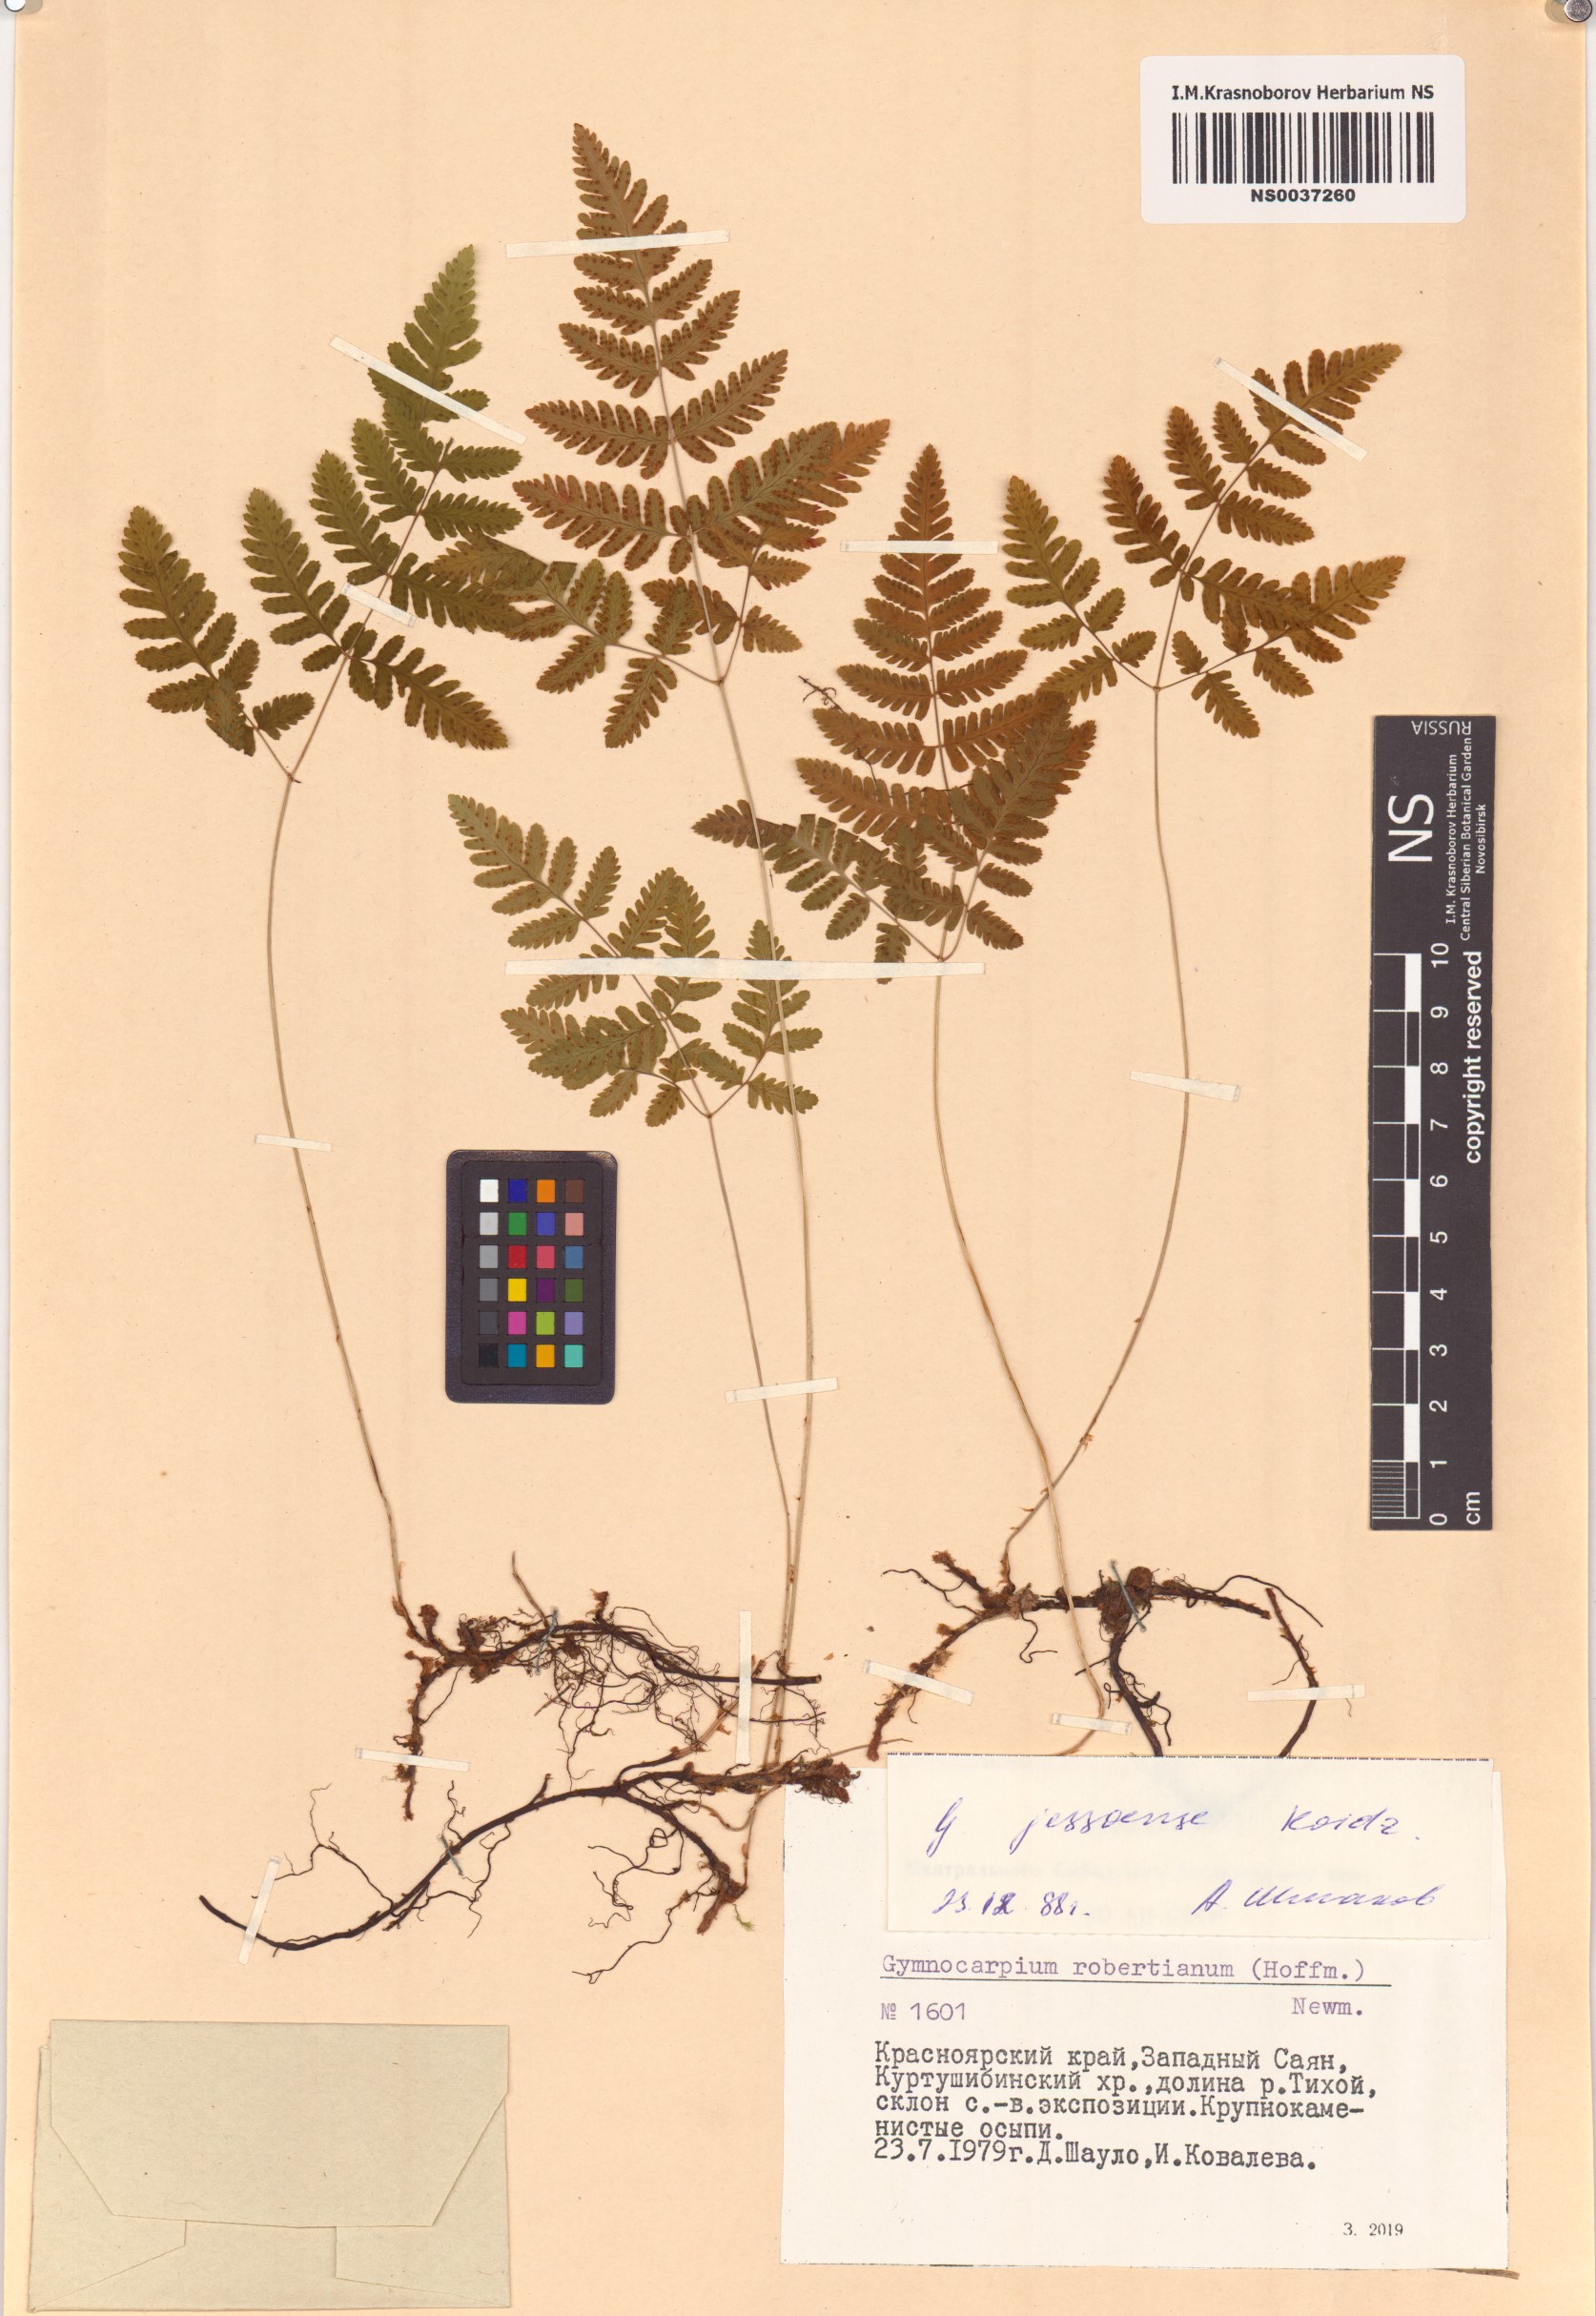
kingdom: Plantae
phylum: Tracheophyta
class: Polypodiopsida
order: Polypodiales
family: Cystopteridaceae
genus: Gymnocarpium
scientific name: Gymnocarpium jessoense
